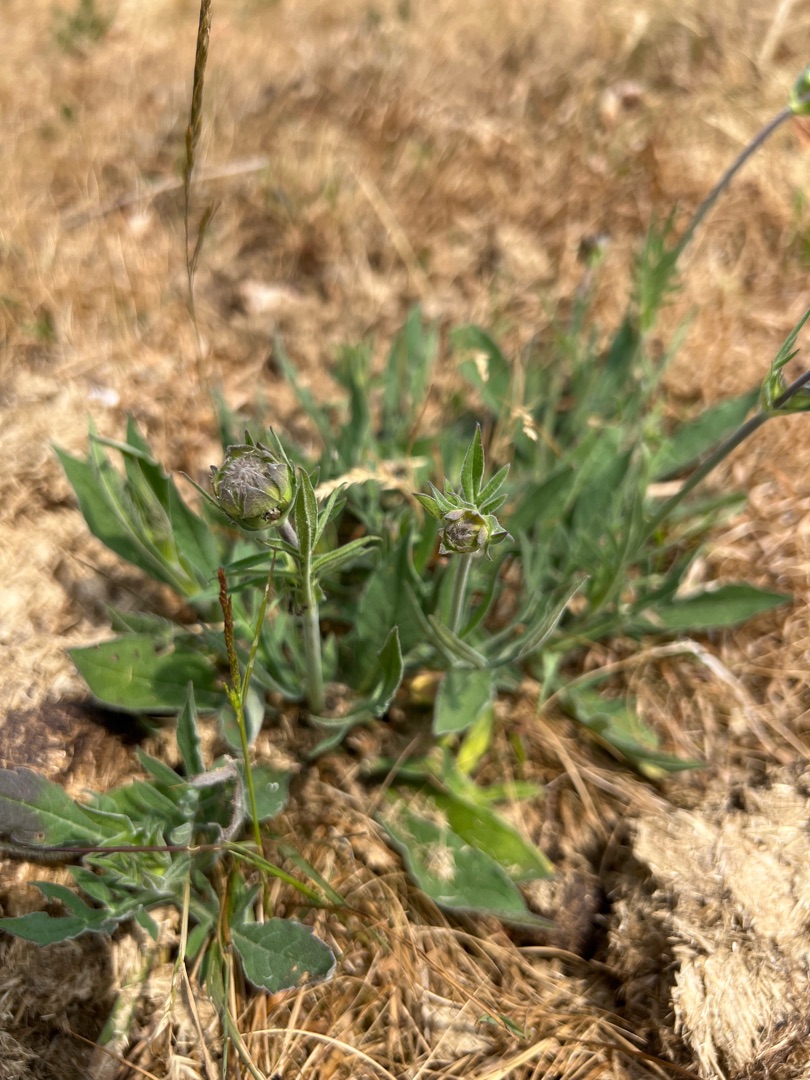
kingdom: Plantae
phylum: Tracheophyta
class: Magnoliopsida
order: Dipsacales
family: Caprifoliaceae
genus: Knautia
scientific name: Knautia arvensis
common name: Blåhat
